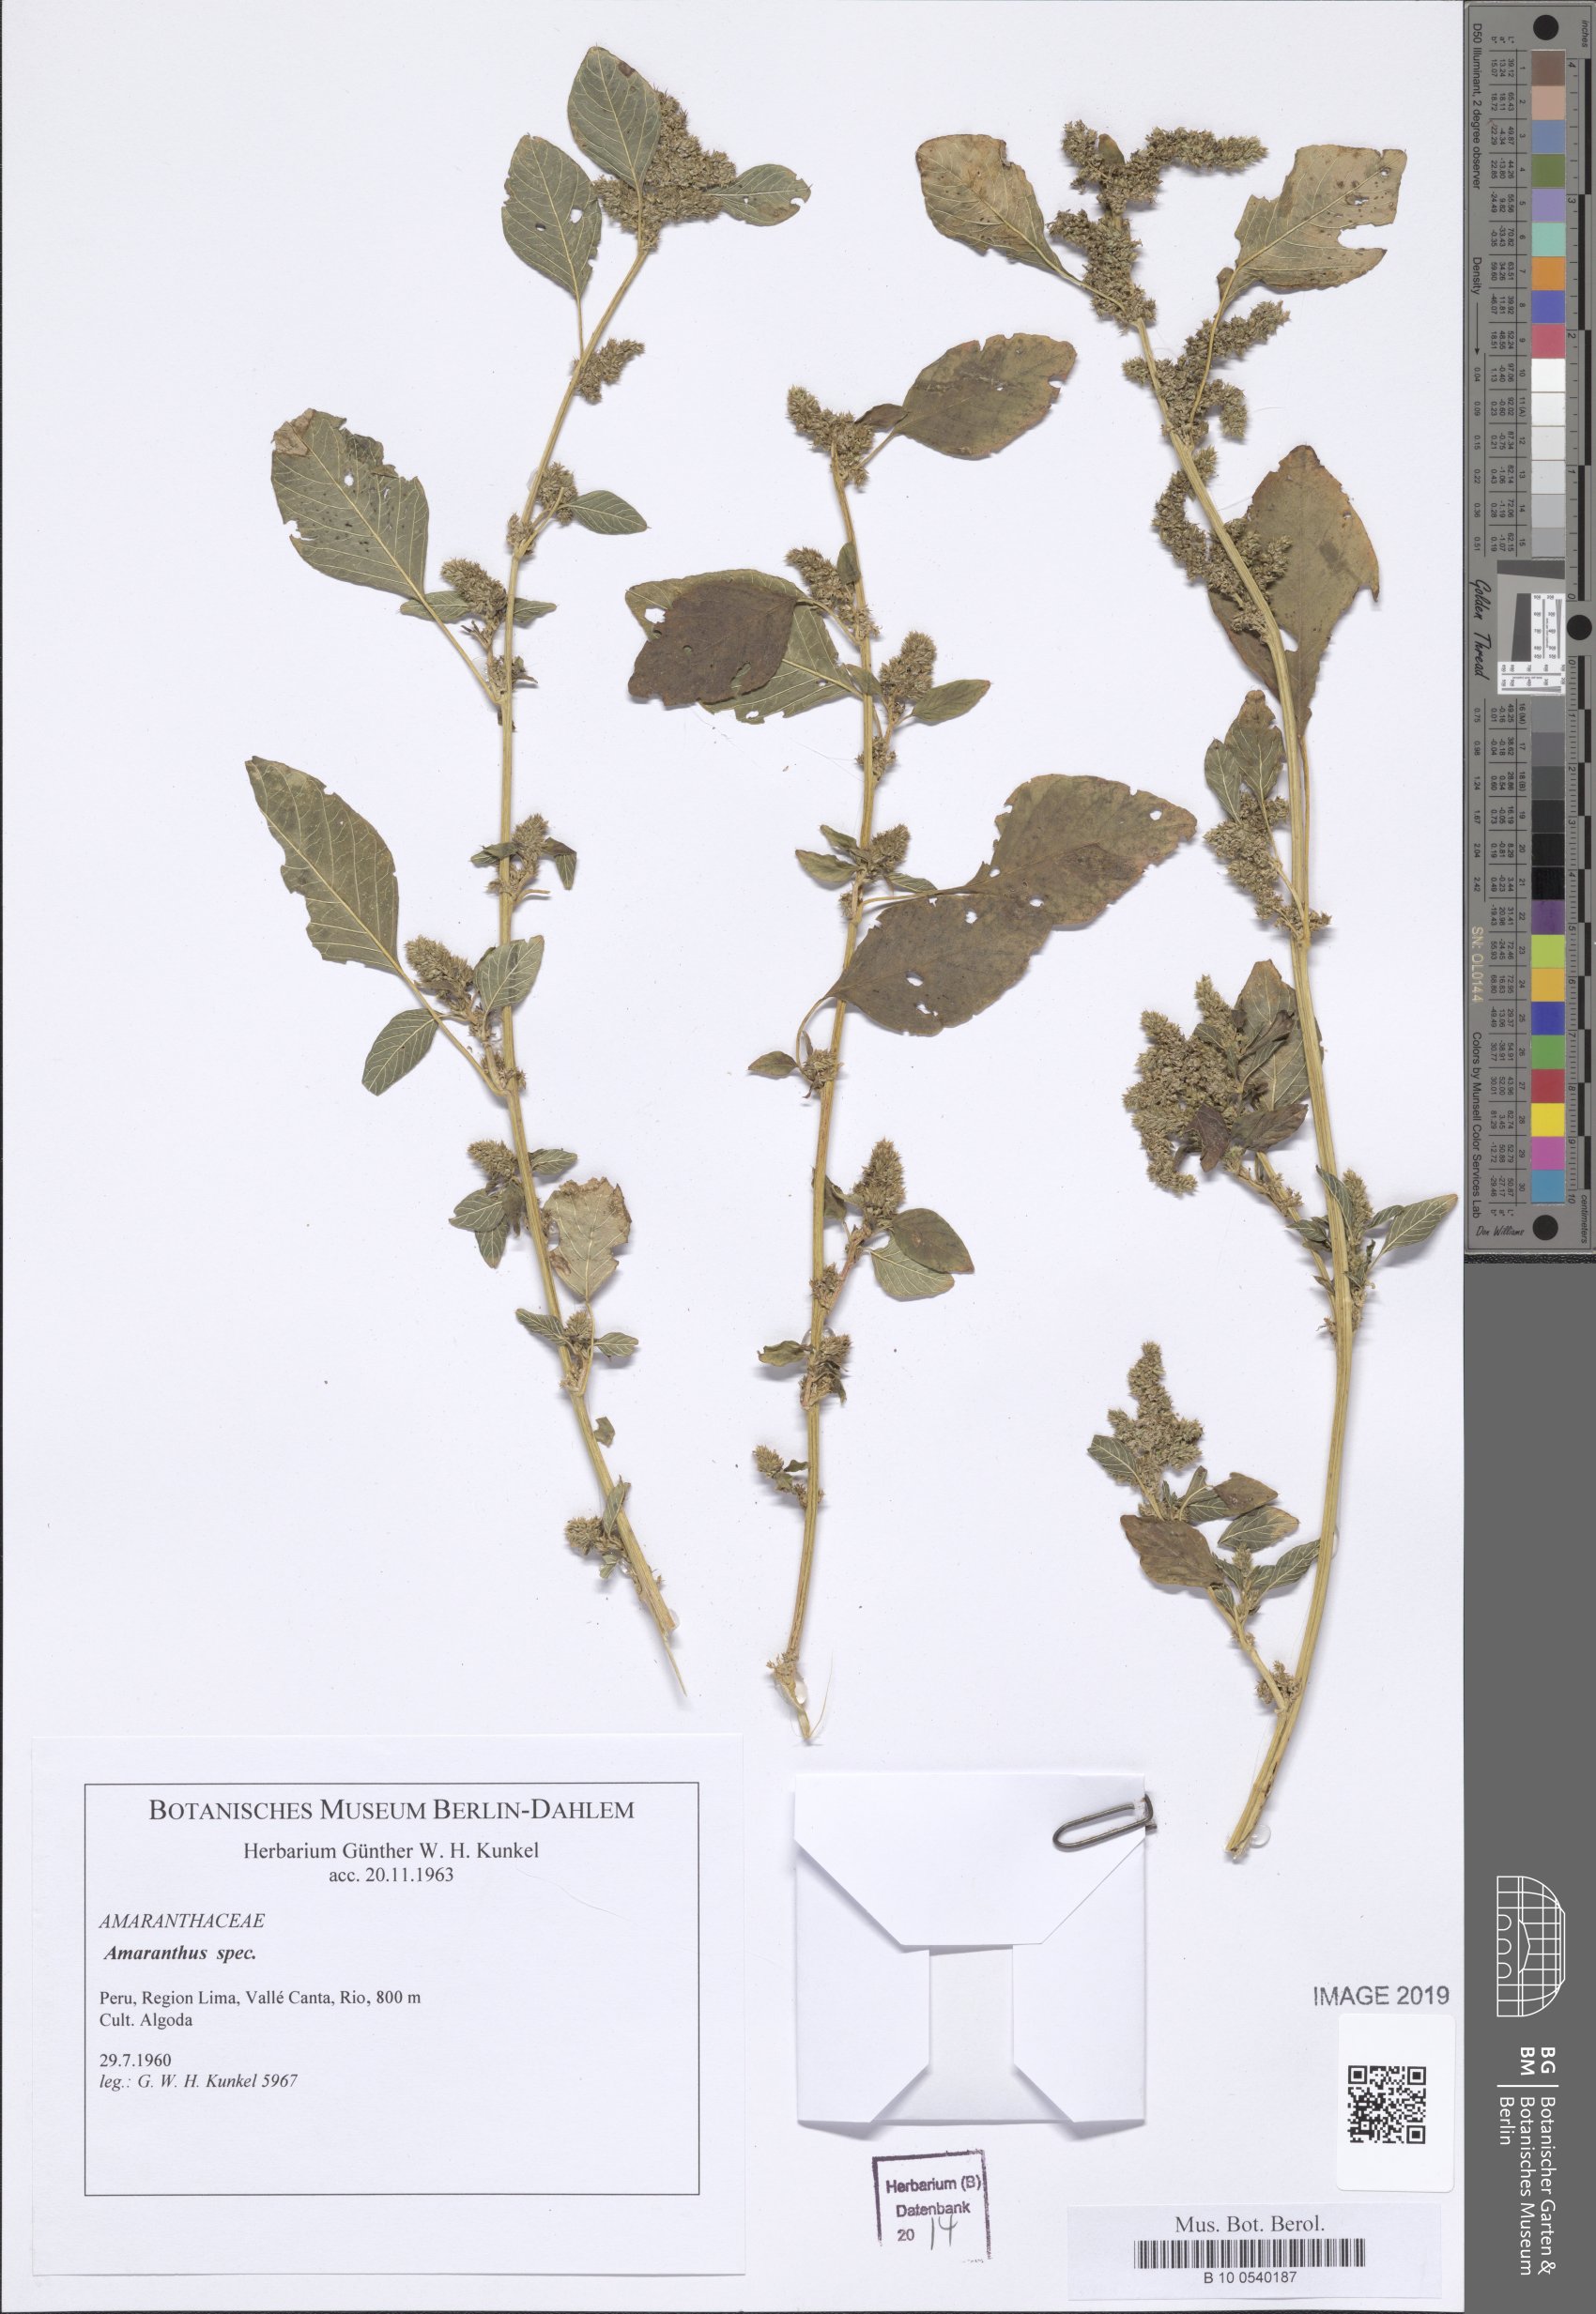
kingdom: Plantae
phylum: Tracheophyta
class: Magnoliopsida
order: Caryophyllales
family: Amaranthaceae
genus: Amaranthus
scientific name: Amaranthus
